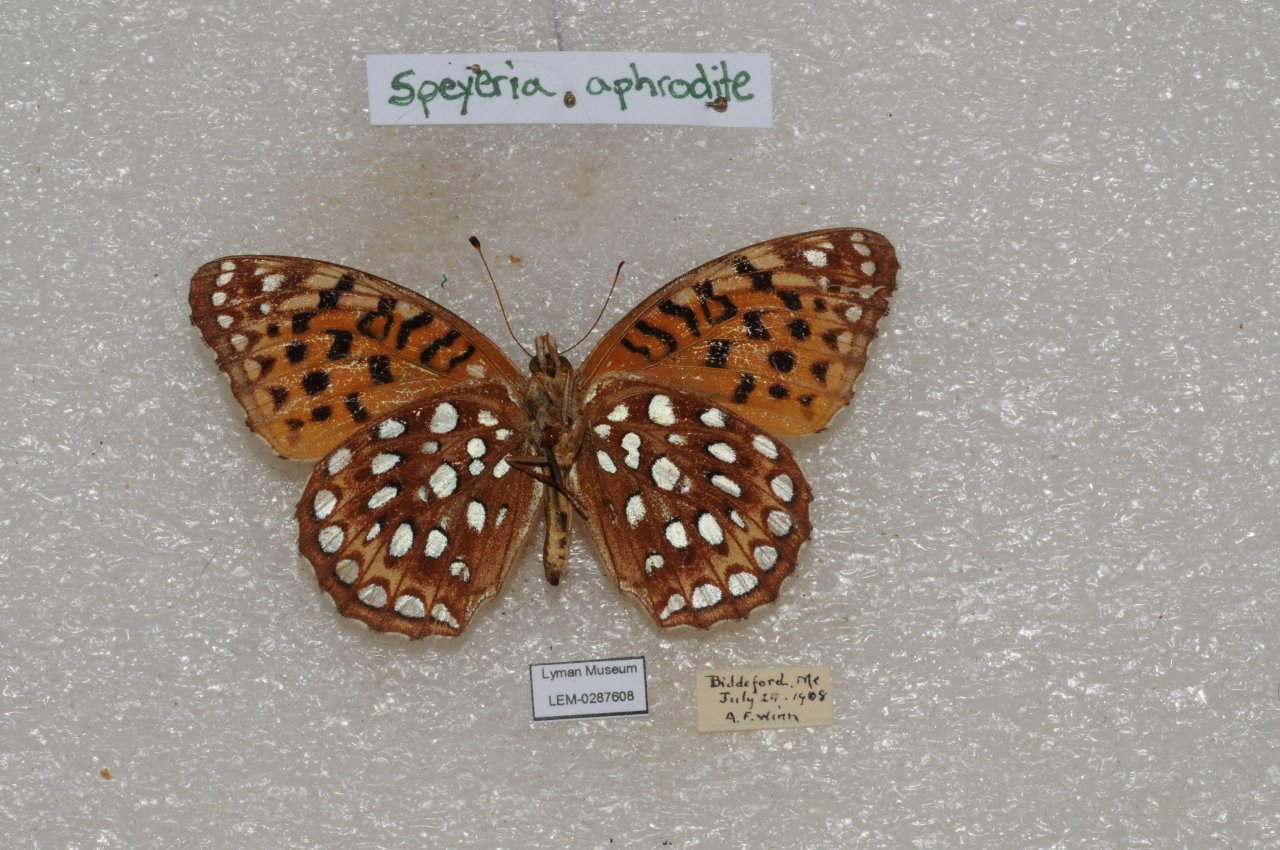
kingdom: Animalia
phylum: Arthropoda
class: Insecta
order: Lepidoptera
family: Nymphalidae
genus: Speyeria
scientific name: Speyeria aphrodite
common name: Aphrodite Fritillary
